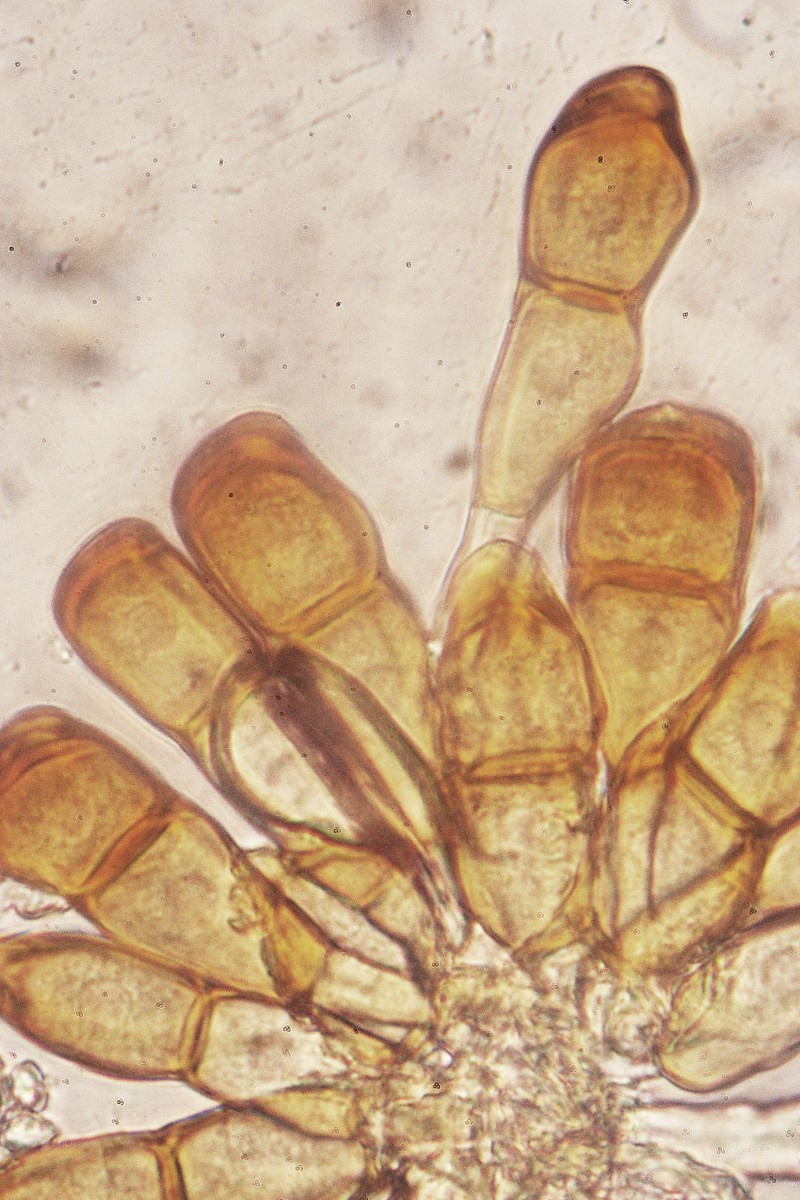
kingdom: Fungi
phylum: Basidiomycota
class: Pucciniomycetes
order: Pucciniales
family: Pucciniaceae
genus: Puccinia
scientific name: Puccinia polygoni-amphibii
